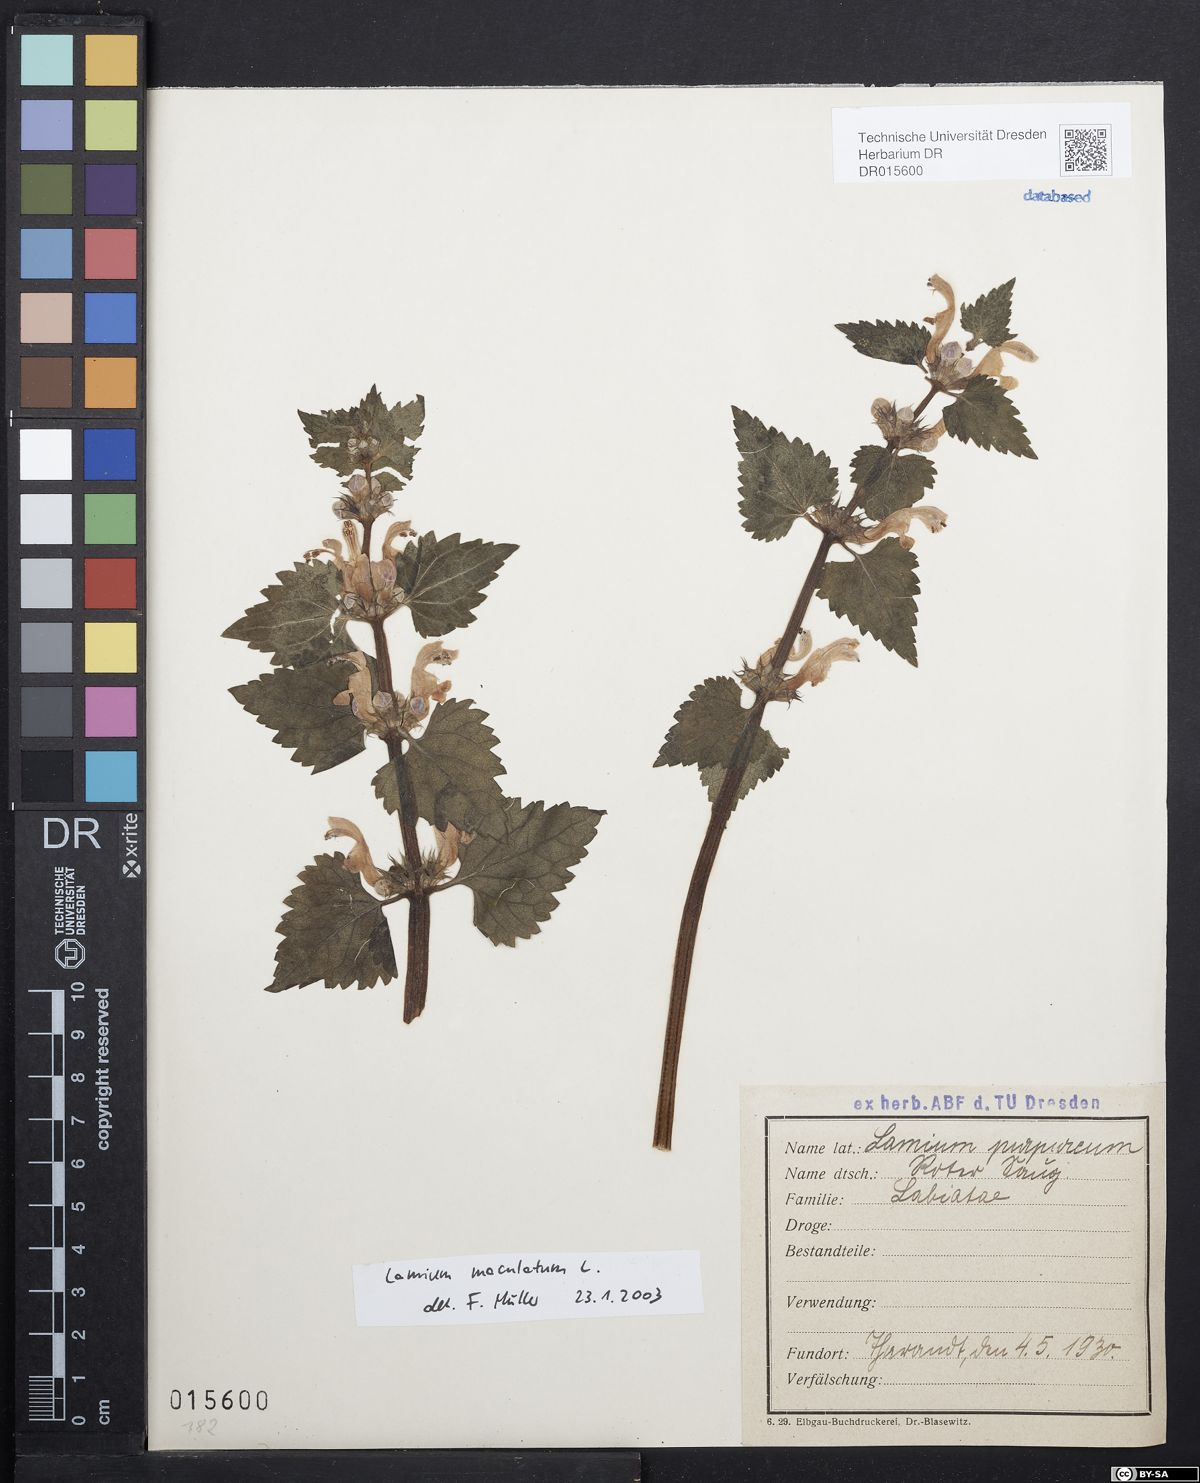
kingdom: Plantae
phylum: Tracheophyta
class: Magnoliopsida
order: Lamiales
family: Lamiaceae
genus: Lamium
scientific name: Lamium maculatum
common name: Spotted dead-nettle
